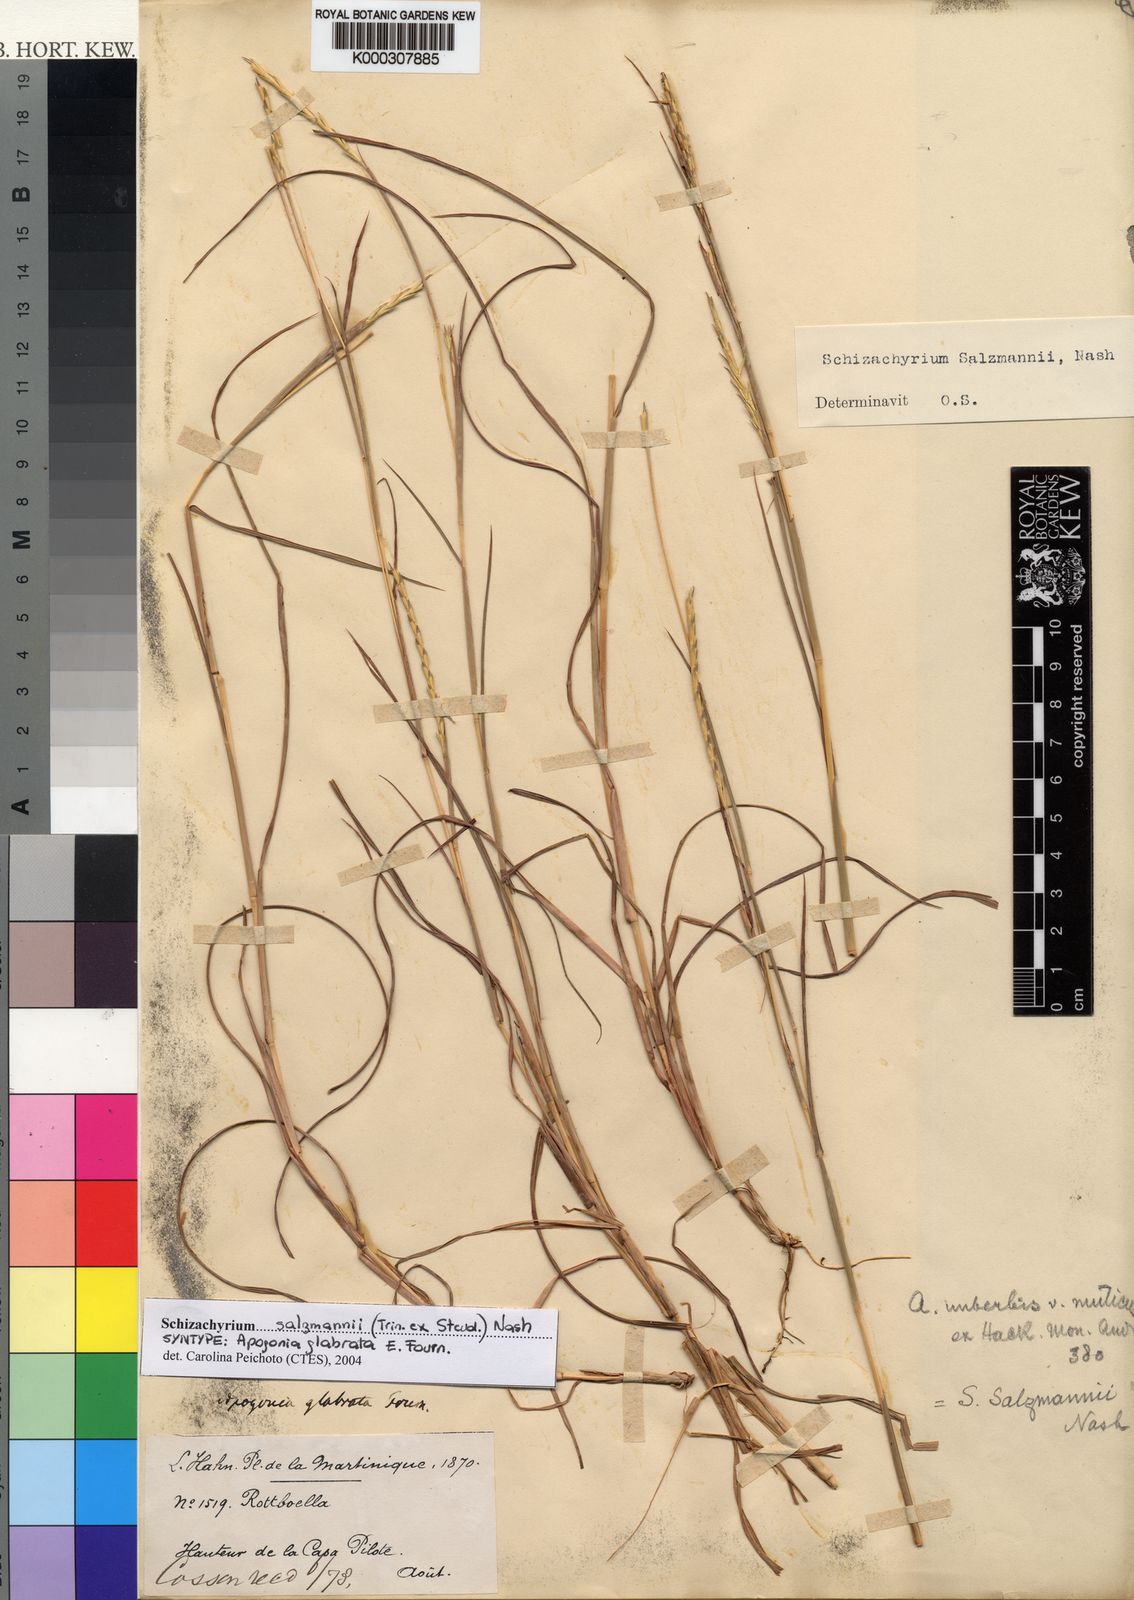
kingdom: Plantae
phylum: Tracheophyta
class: Liliopsida
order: Poales
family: Poaceae
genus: Andropogon
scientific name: Andropogon salzmannii
